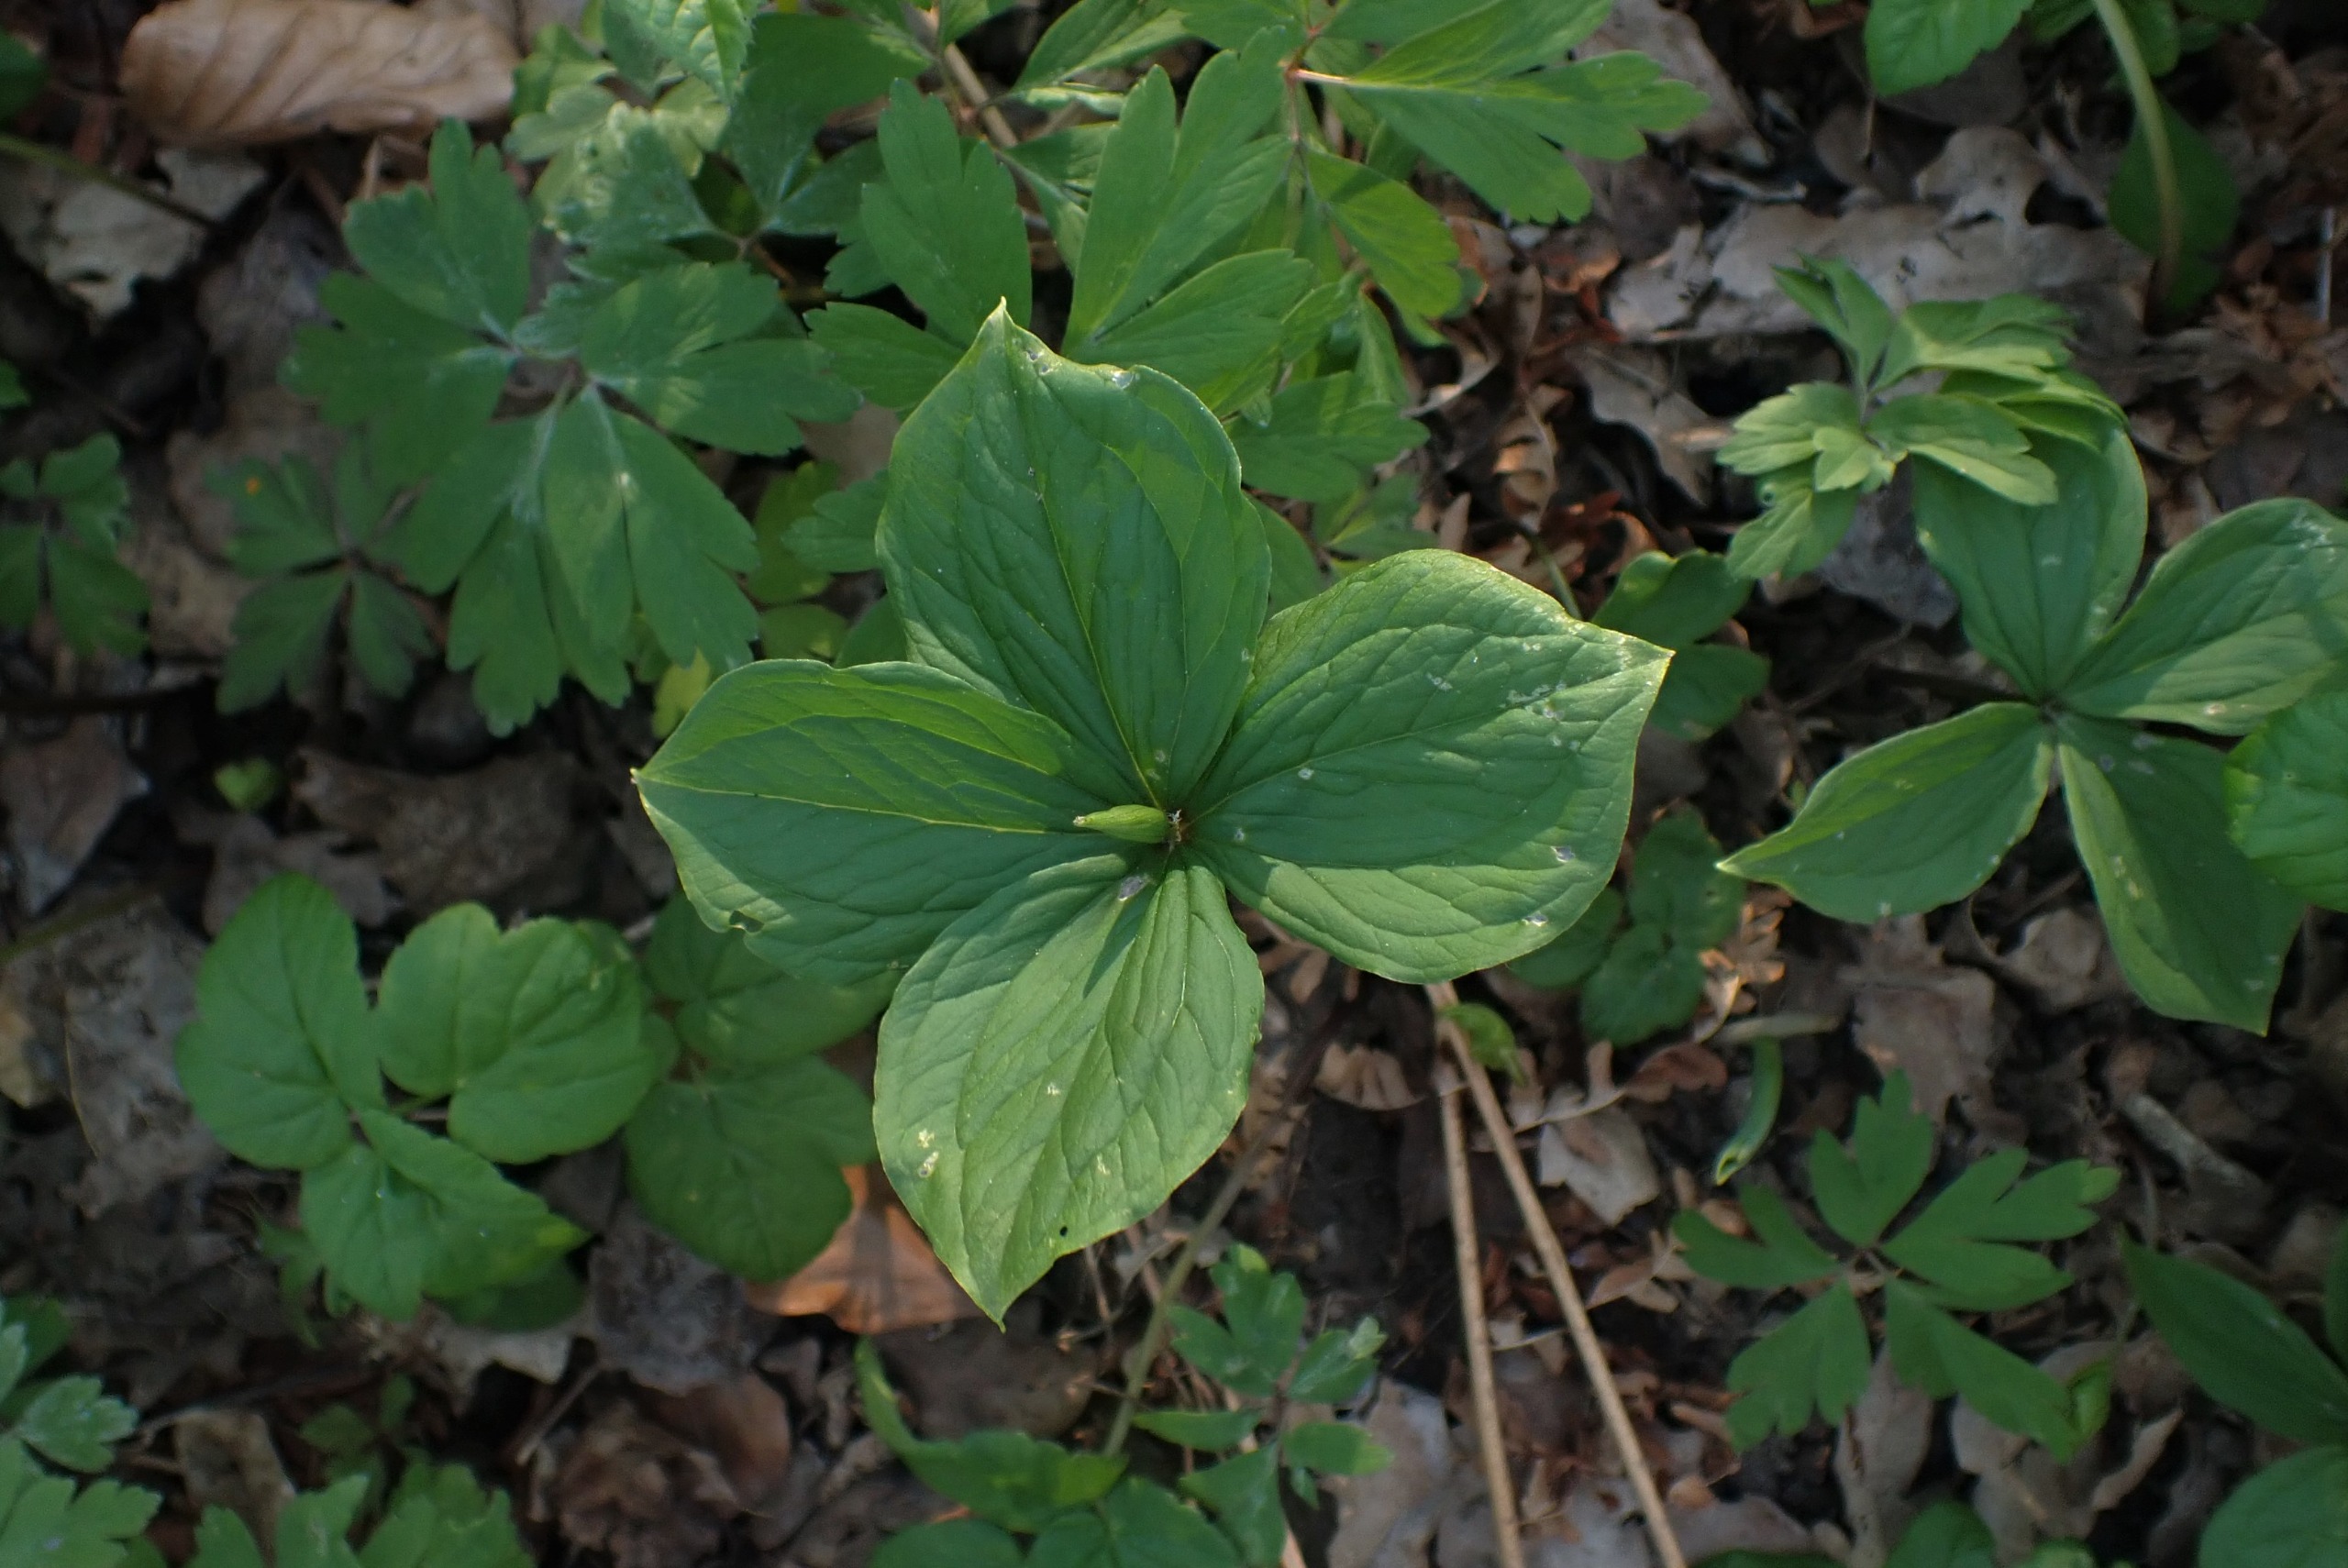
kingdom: Plantae
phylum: Tracheophyta
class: Liliopsida
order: Liliales
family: Melanthiaceae
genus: Paris
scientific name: Paris quadrifolia
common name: Firblad
